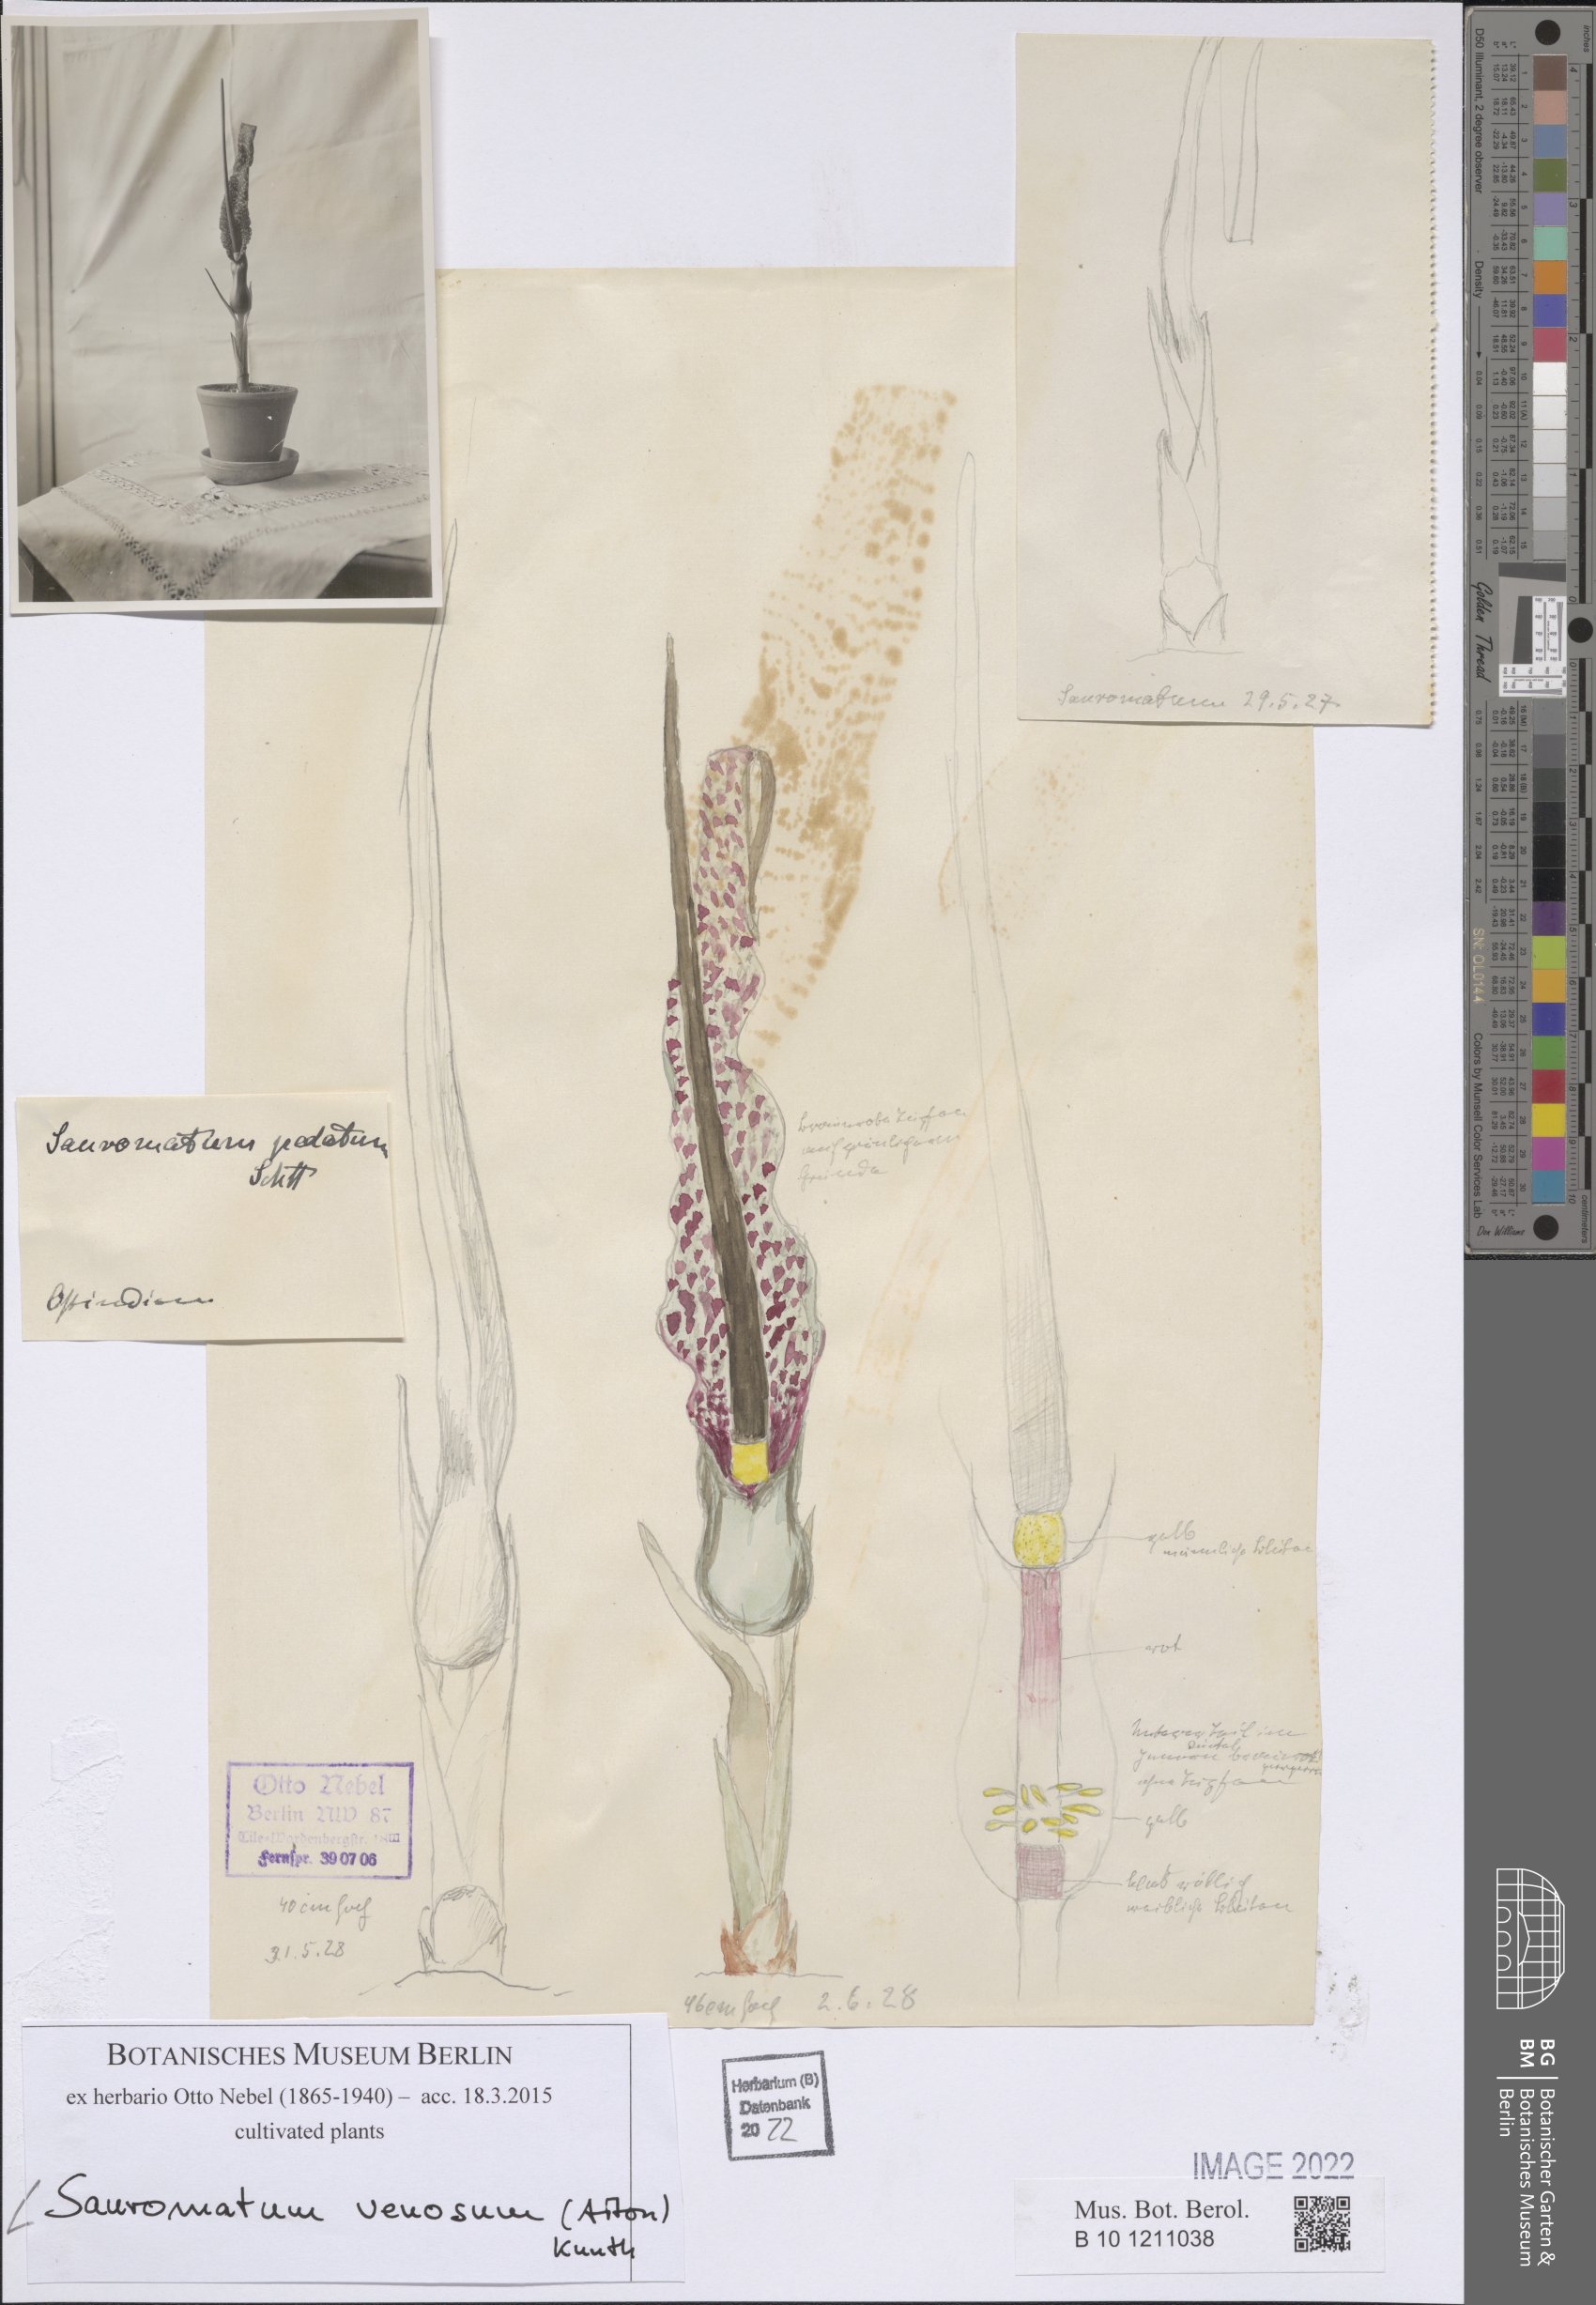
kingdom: Plantae
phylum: Tracheophyta
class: Liliopsida
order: Alismatales
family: Araceae
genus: Sauromatum
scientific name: Sauromatum venosum
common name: Voodoo lily
